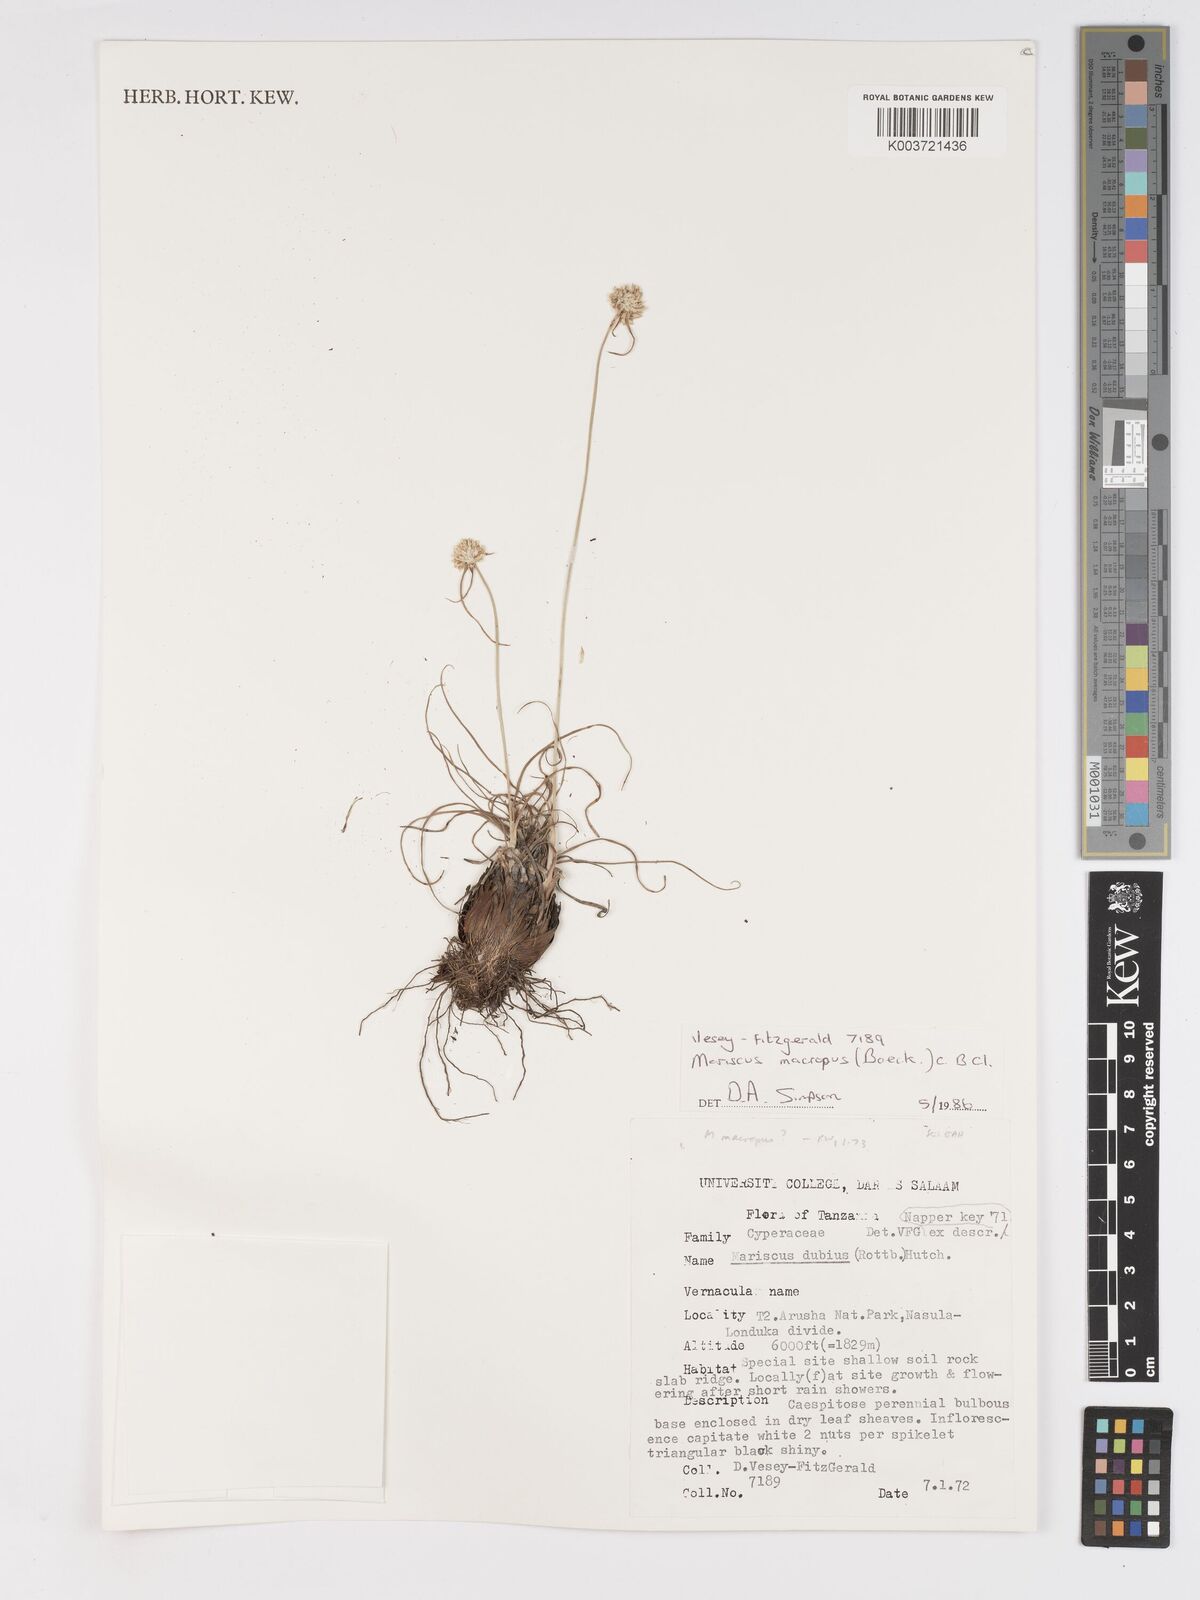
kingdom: Plantae
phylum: Tracheophyta
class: Liliopsida
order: Poales
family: Cyperaceae
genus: Cyperus
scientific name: Cyperus mollipes
